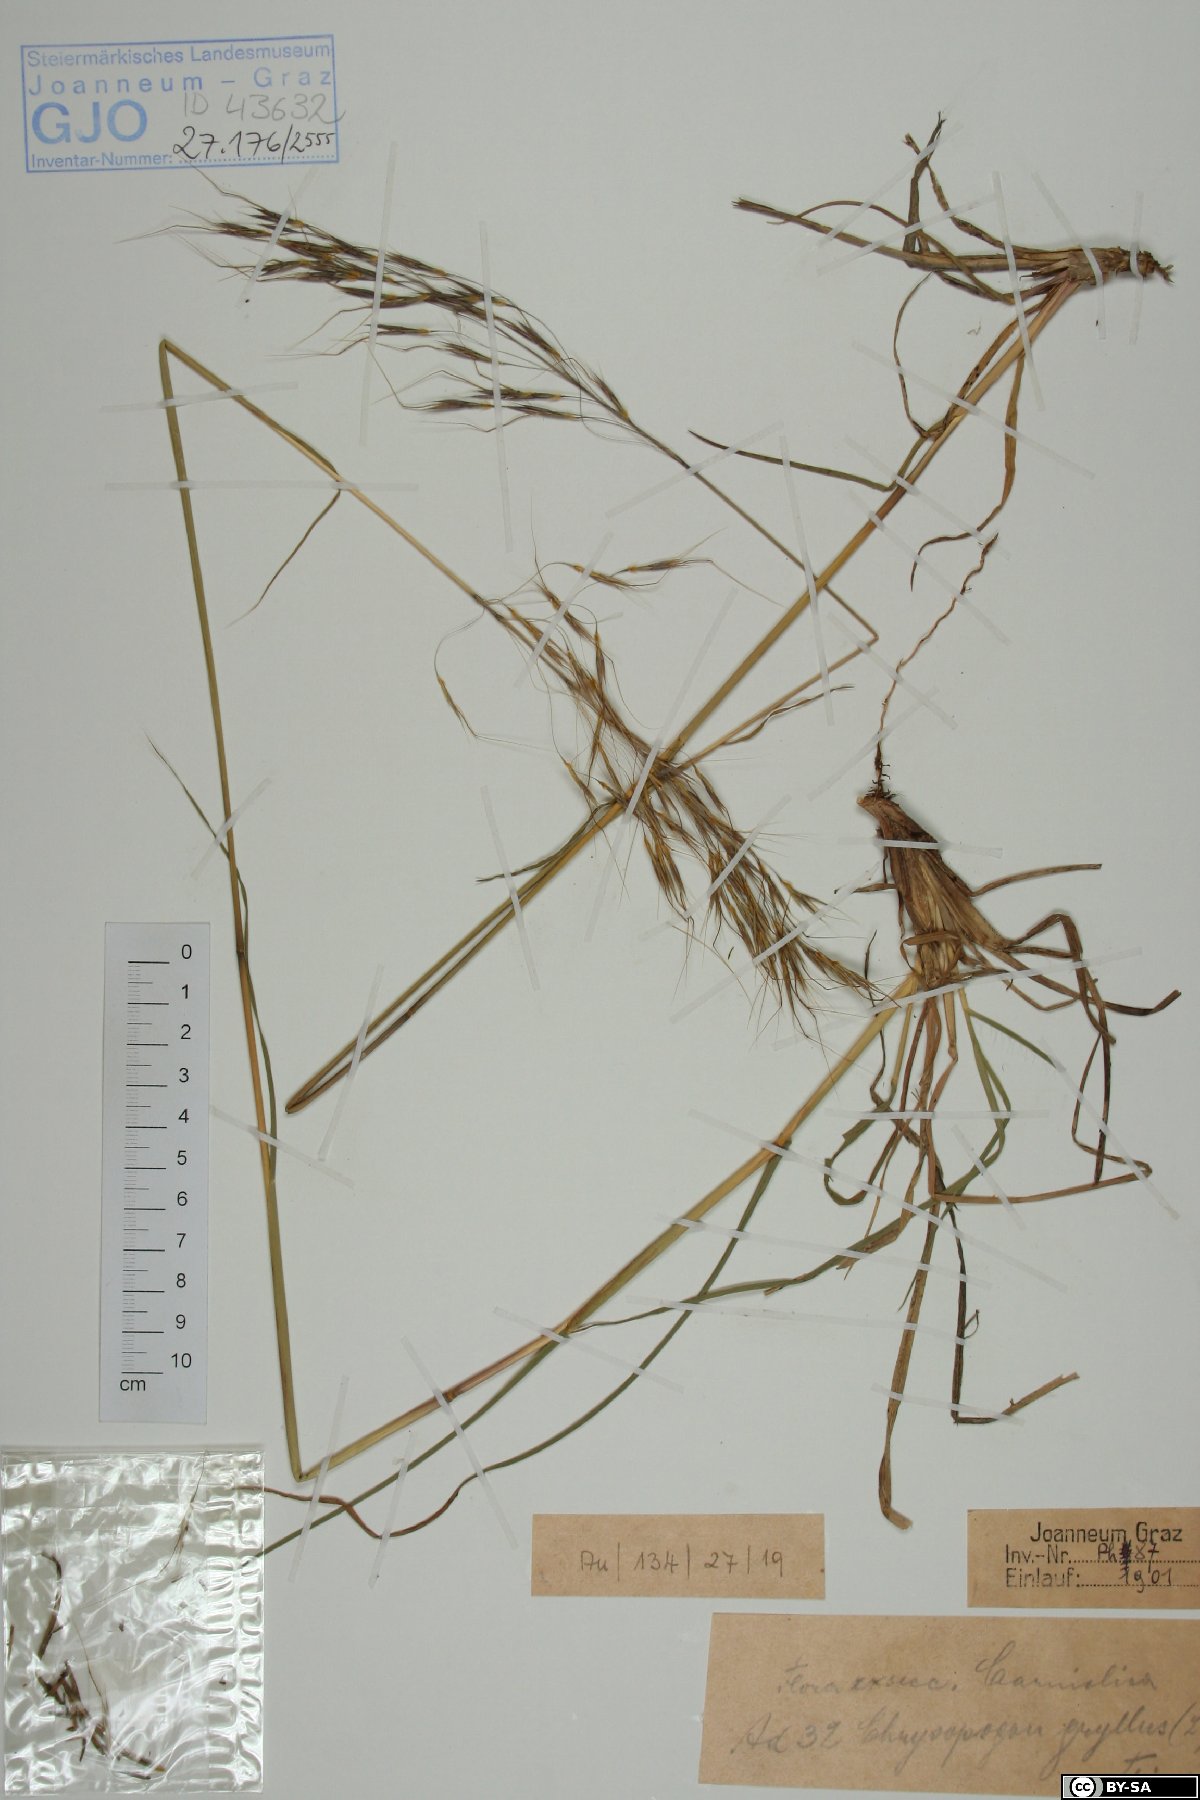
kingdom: Plantae
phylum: Tracheophyta
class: Liliopsida
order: Poales
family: Poaceae
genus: Chrysopogon
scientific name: Chrysopogon gryllus
